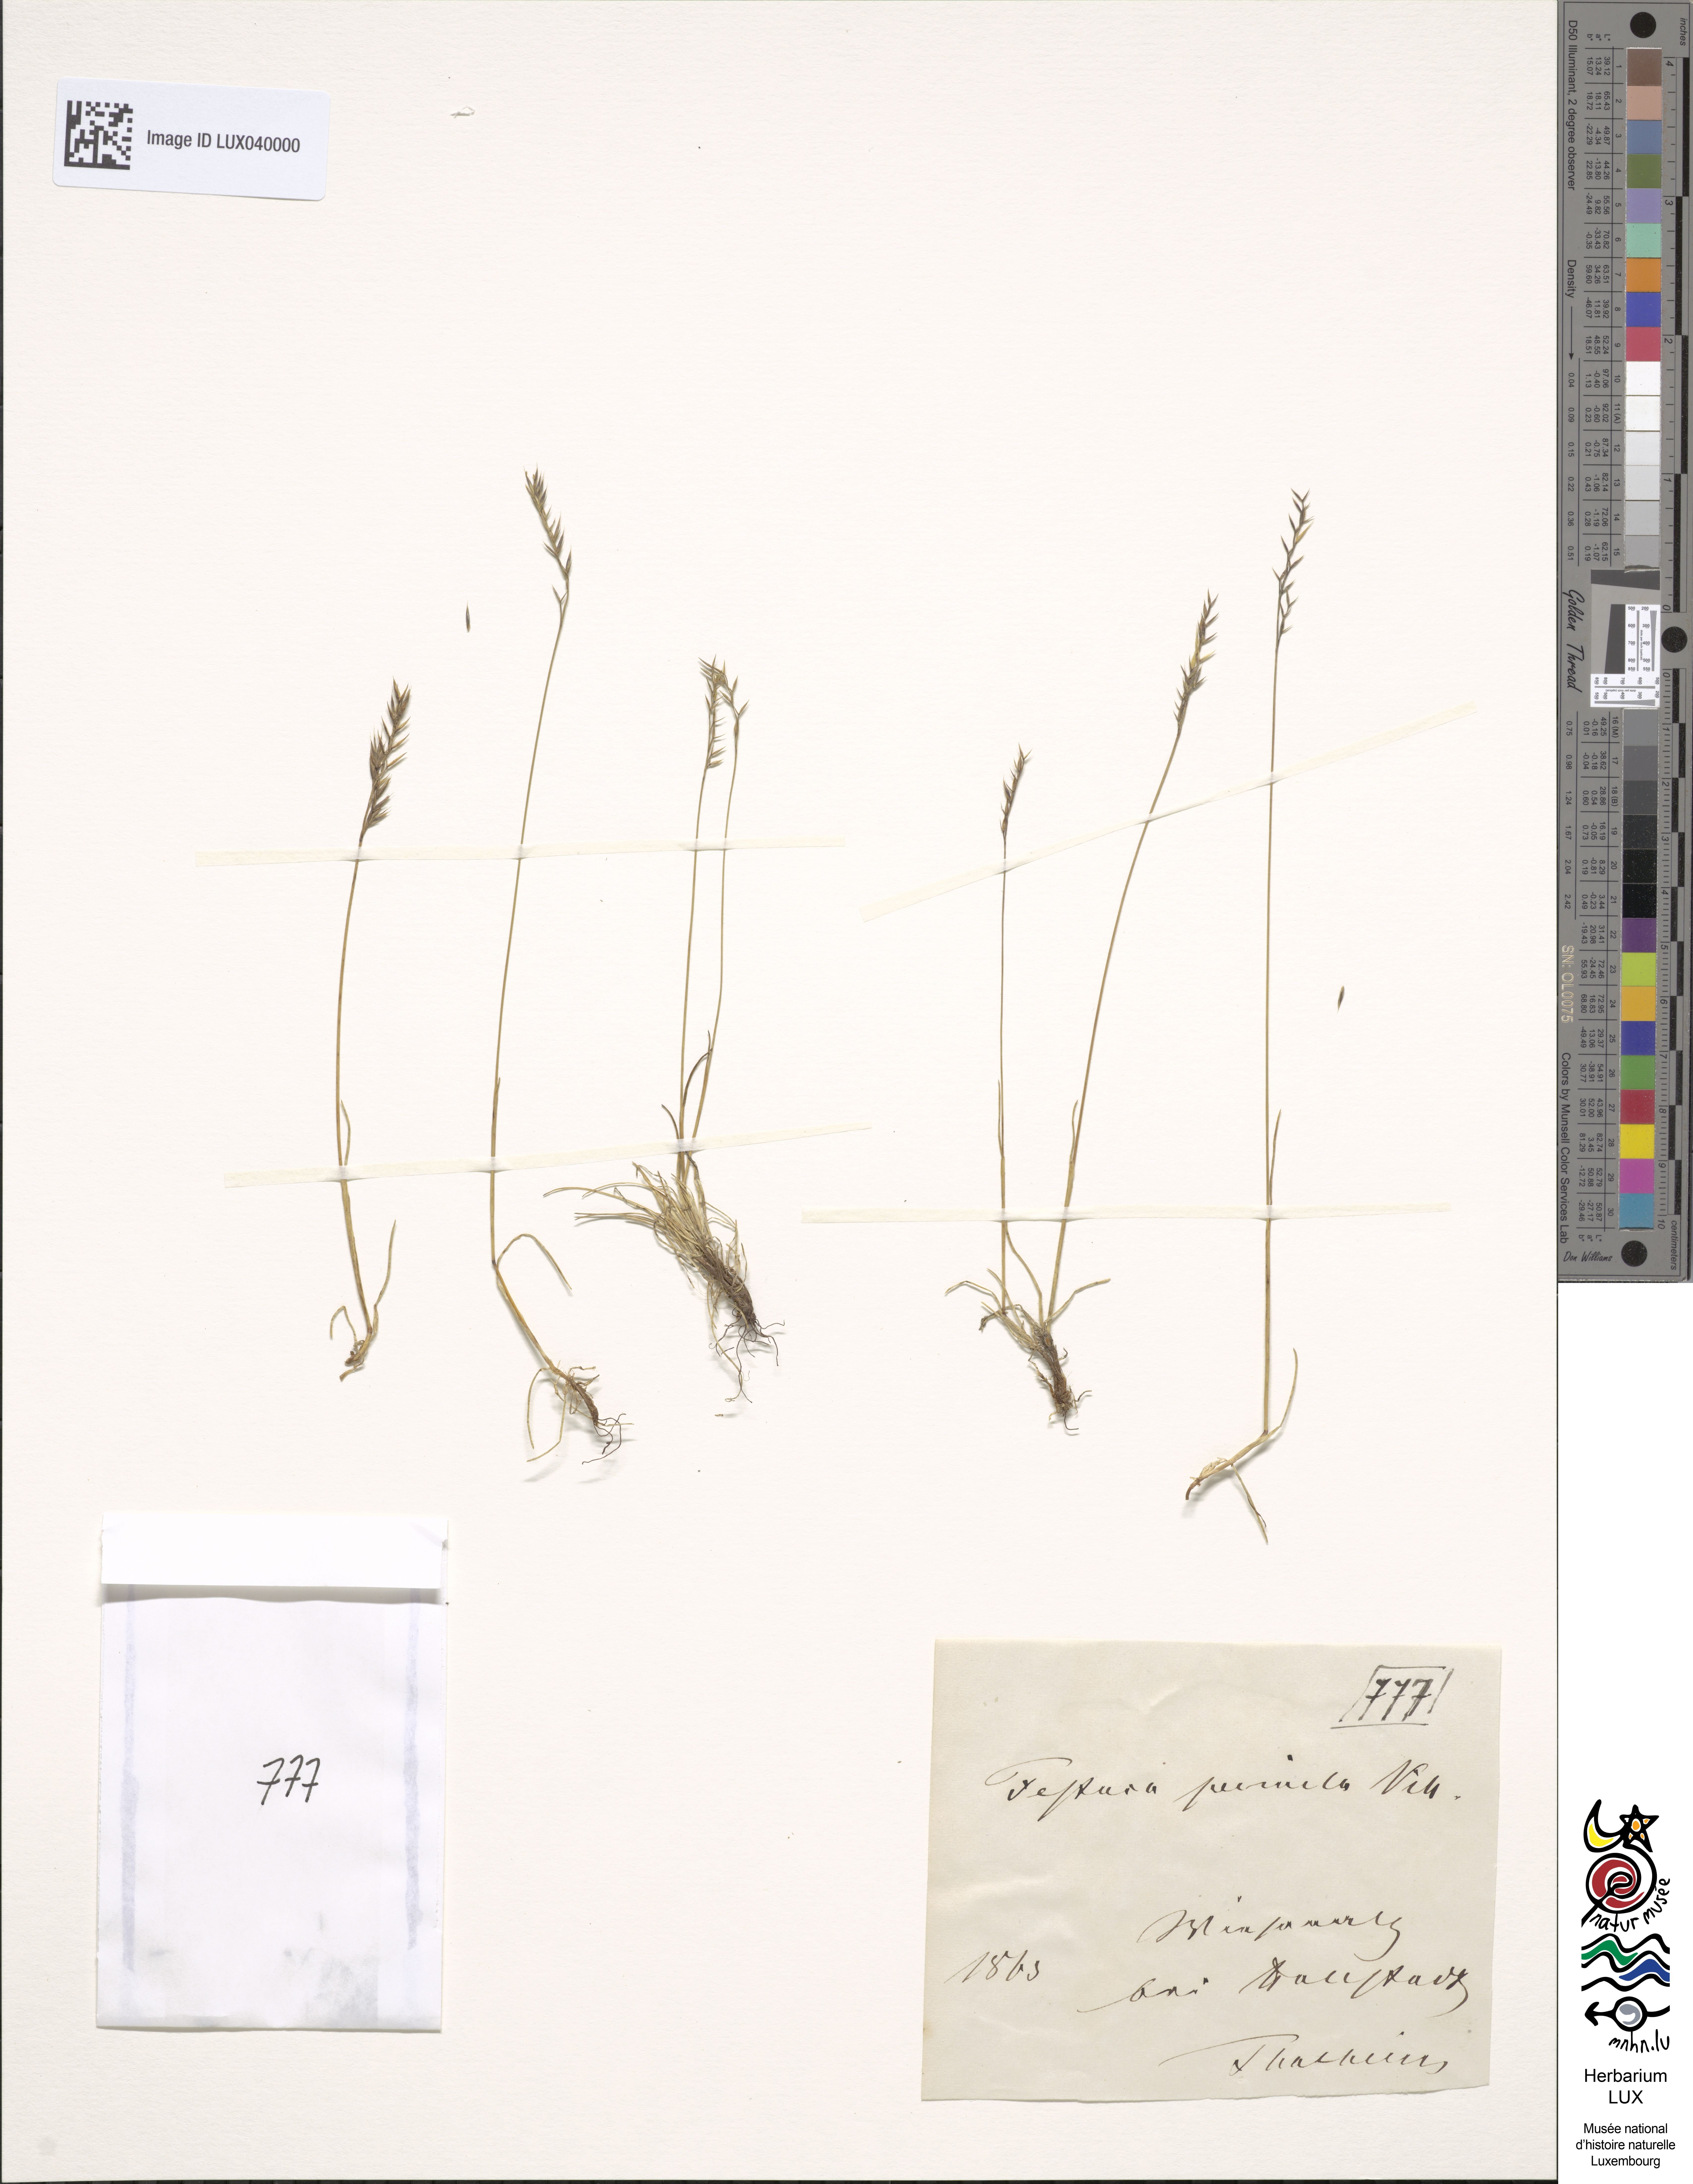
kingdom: Plantae
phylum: Tracheophyta
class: Liliopsida
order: Poales
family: Poaceae
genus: Festuca
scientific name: Festuca quadriflora
